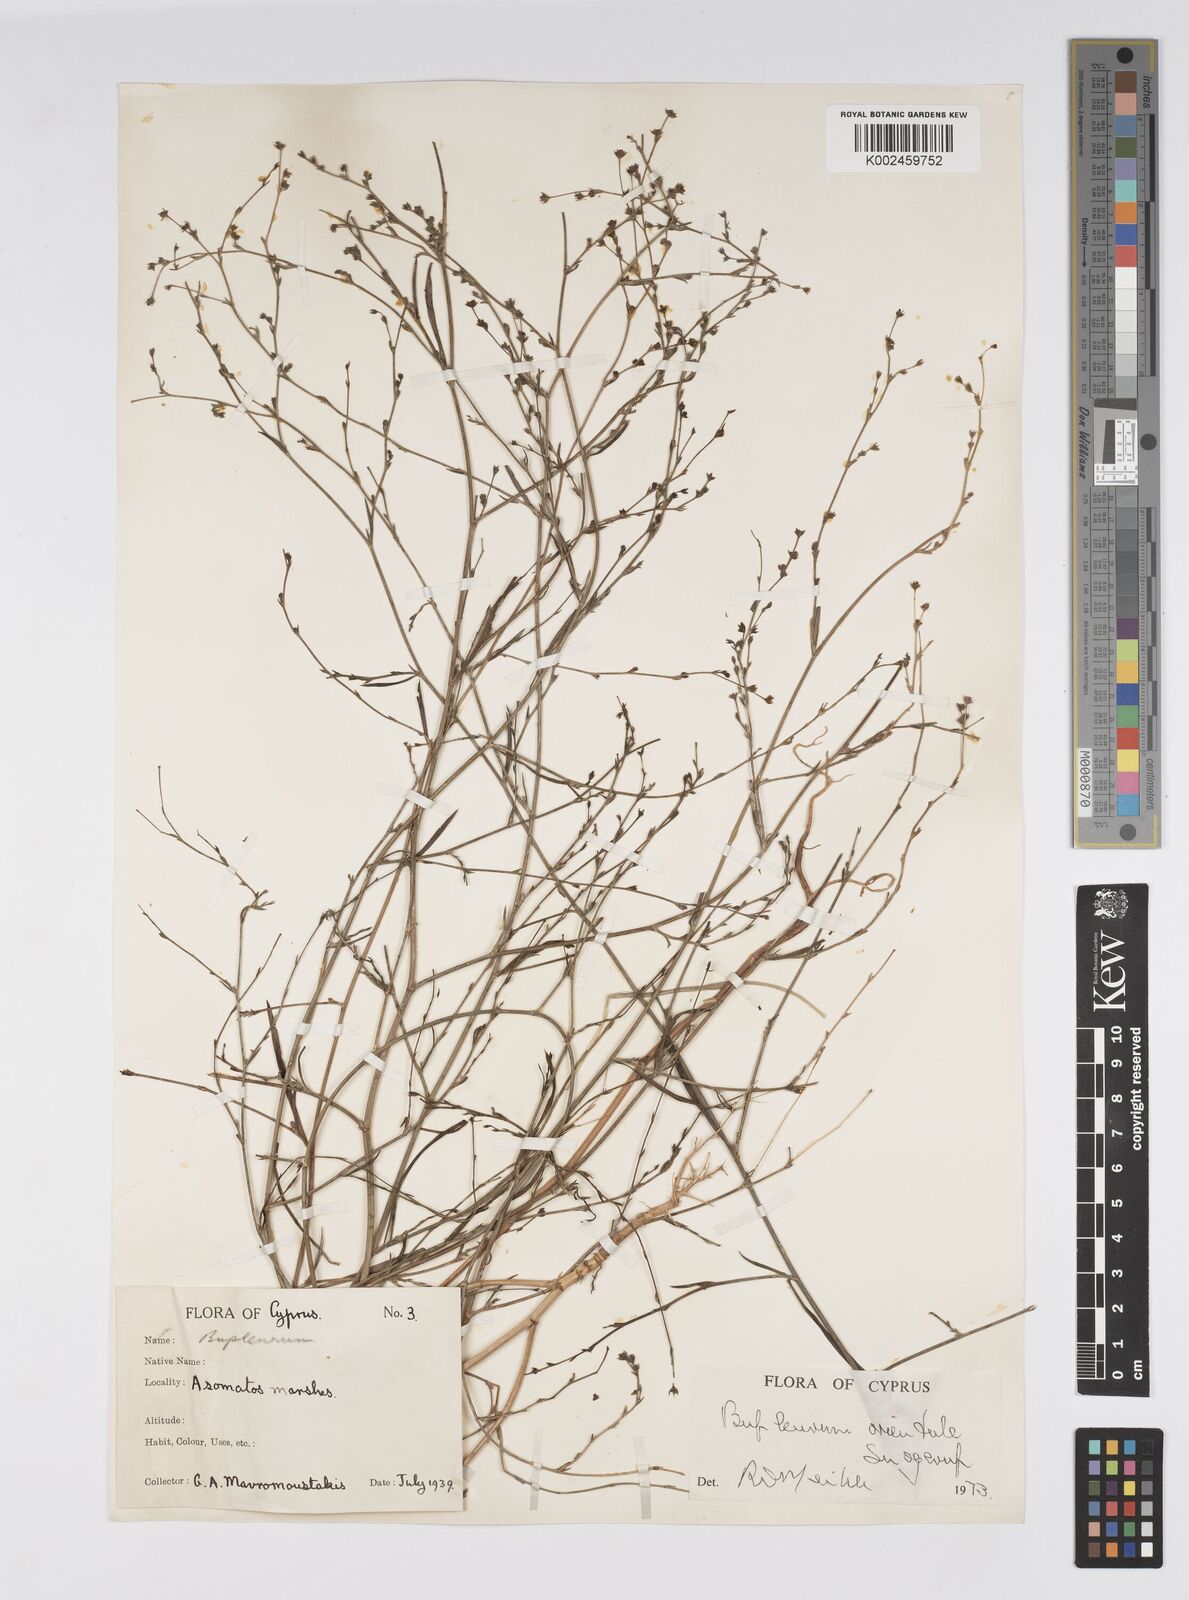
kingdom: Plantae
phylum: Tracheophyta
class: Magnoliopsida
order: Apiales
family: Apiaceae
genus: Bupleurum
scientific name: Bupleurum orientale
